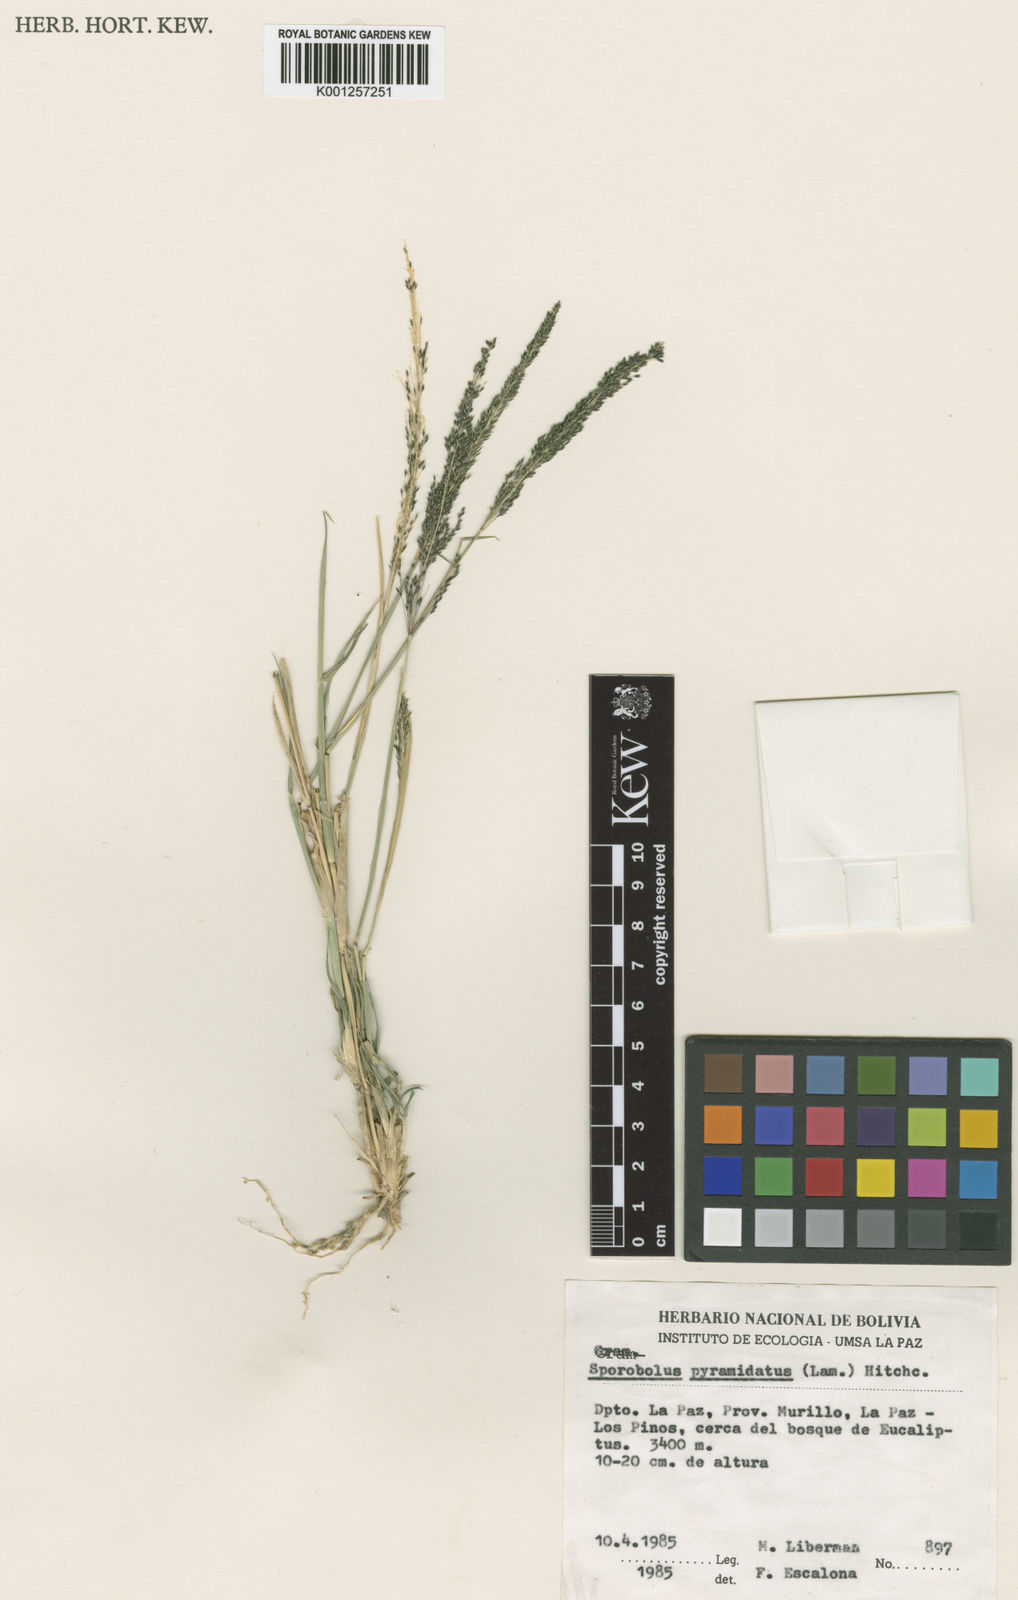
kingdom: Plantae
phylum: Tracheophyta
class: Liliopsida
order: Poales
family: Poaceae
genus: Sporobolus
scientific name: Sporobolus pyramidatus
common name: Whorled dropseed
